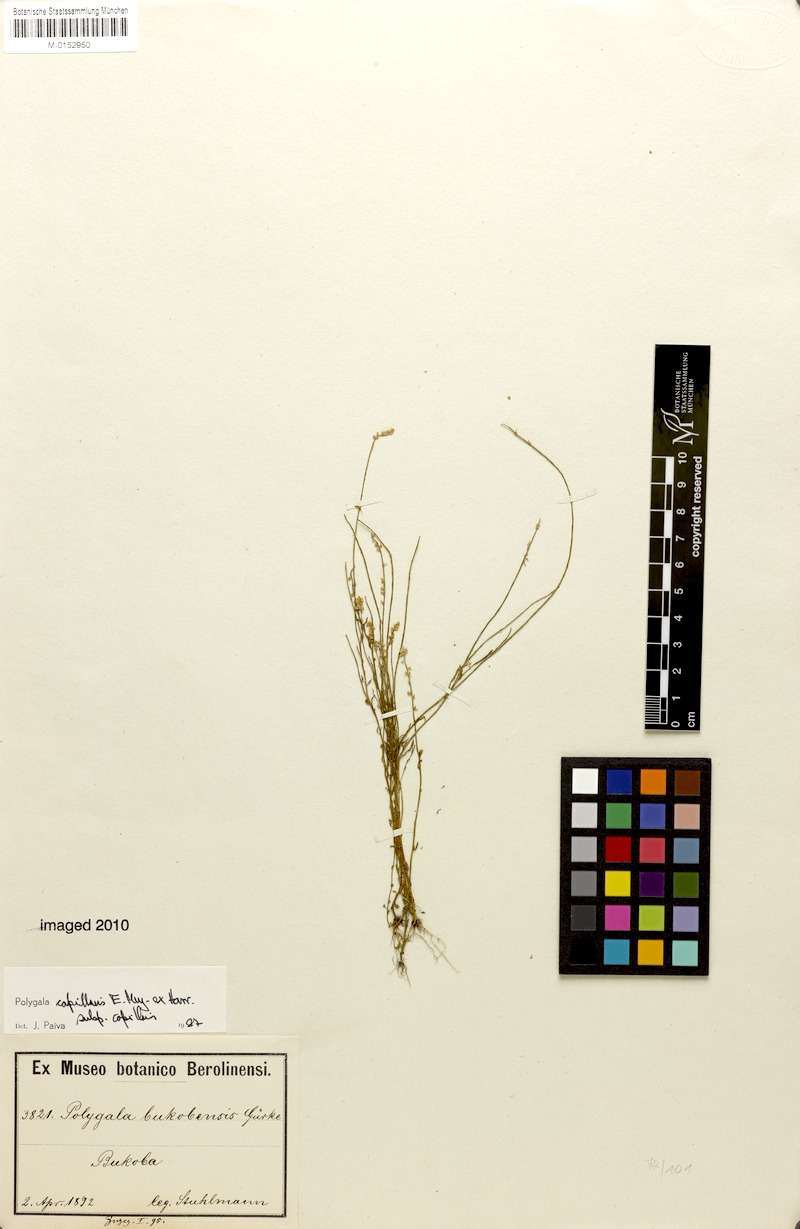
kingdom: Plantae
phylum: Tracheophyta
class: Magnoliopsida
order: Fabales
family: Polygalaceae
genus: Polygala
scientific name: Polygala capillaris
